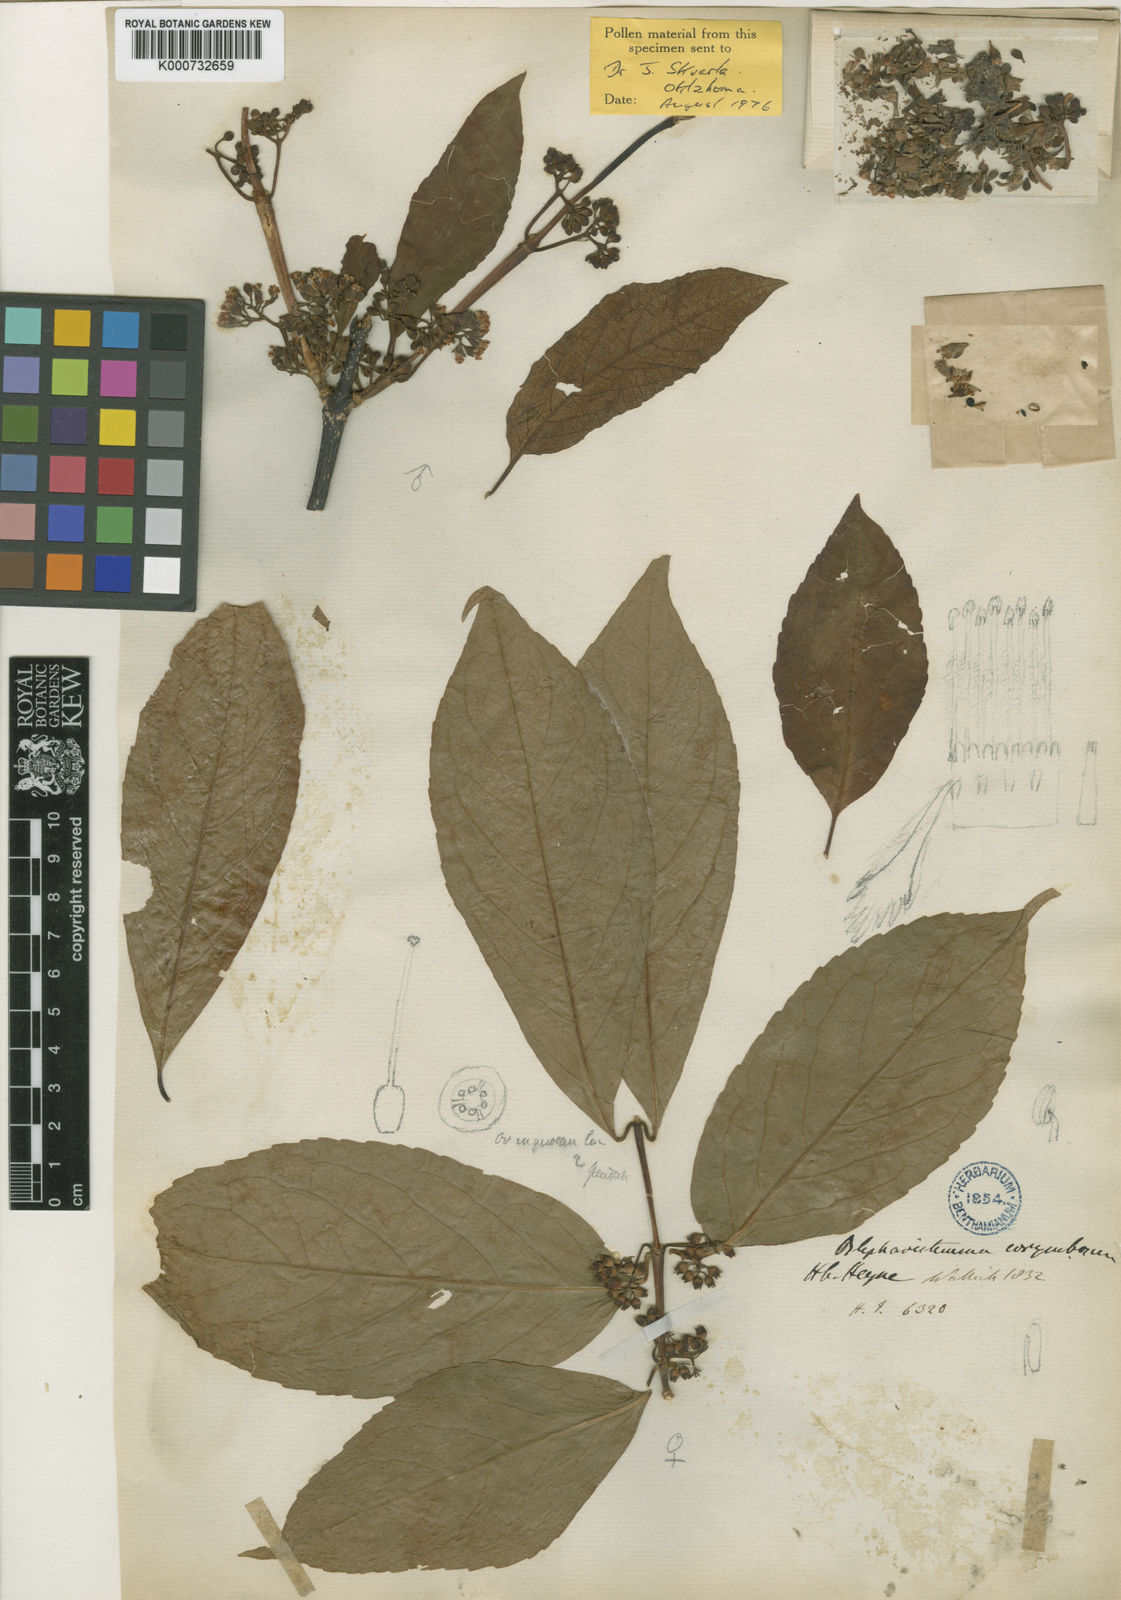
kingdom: Plantae
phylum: Tracheophyta
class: Magnoliopsida
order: Malpighiales
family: Rhizophoraceae
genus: Blepharistemma
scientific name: Blepharistemma serratum
